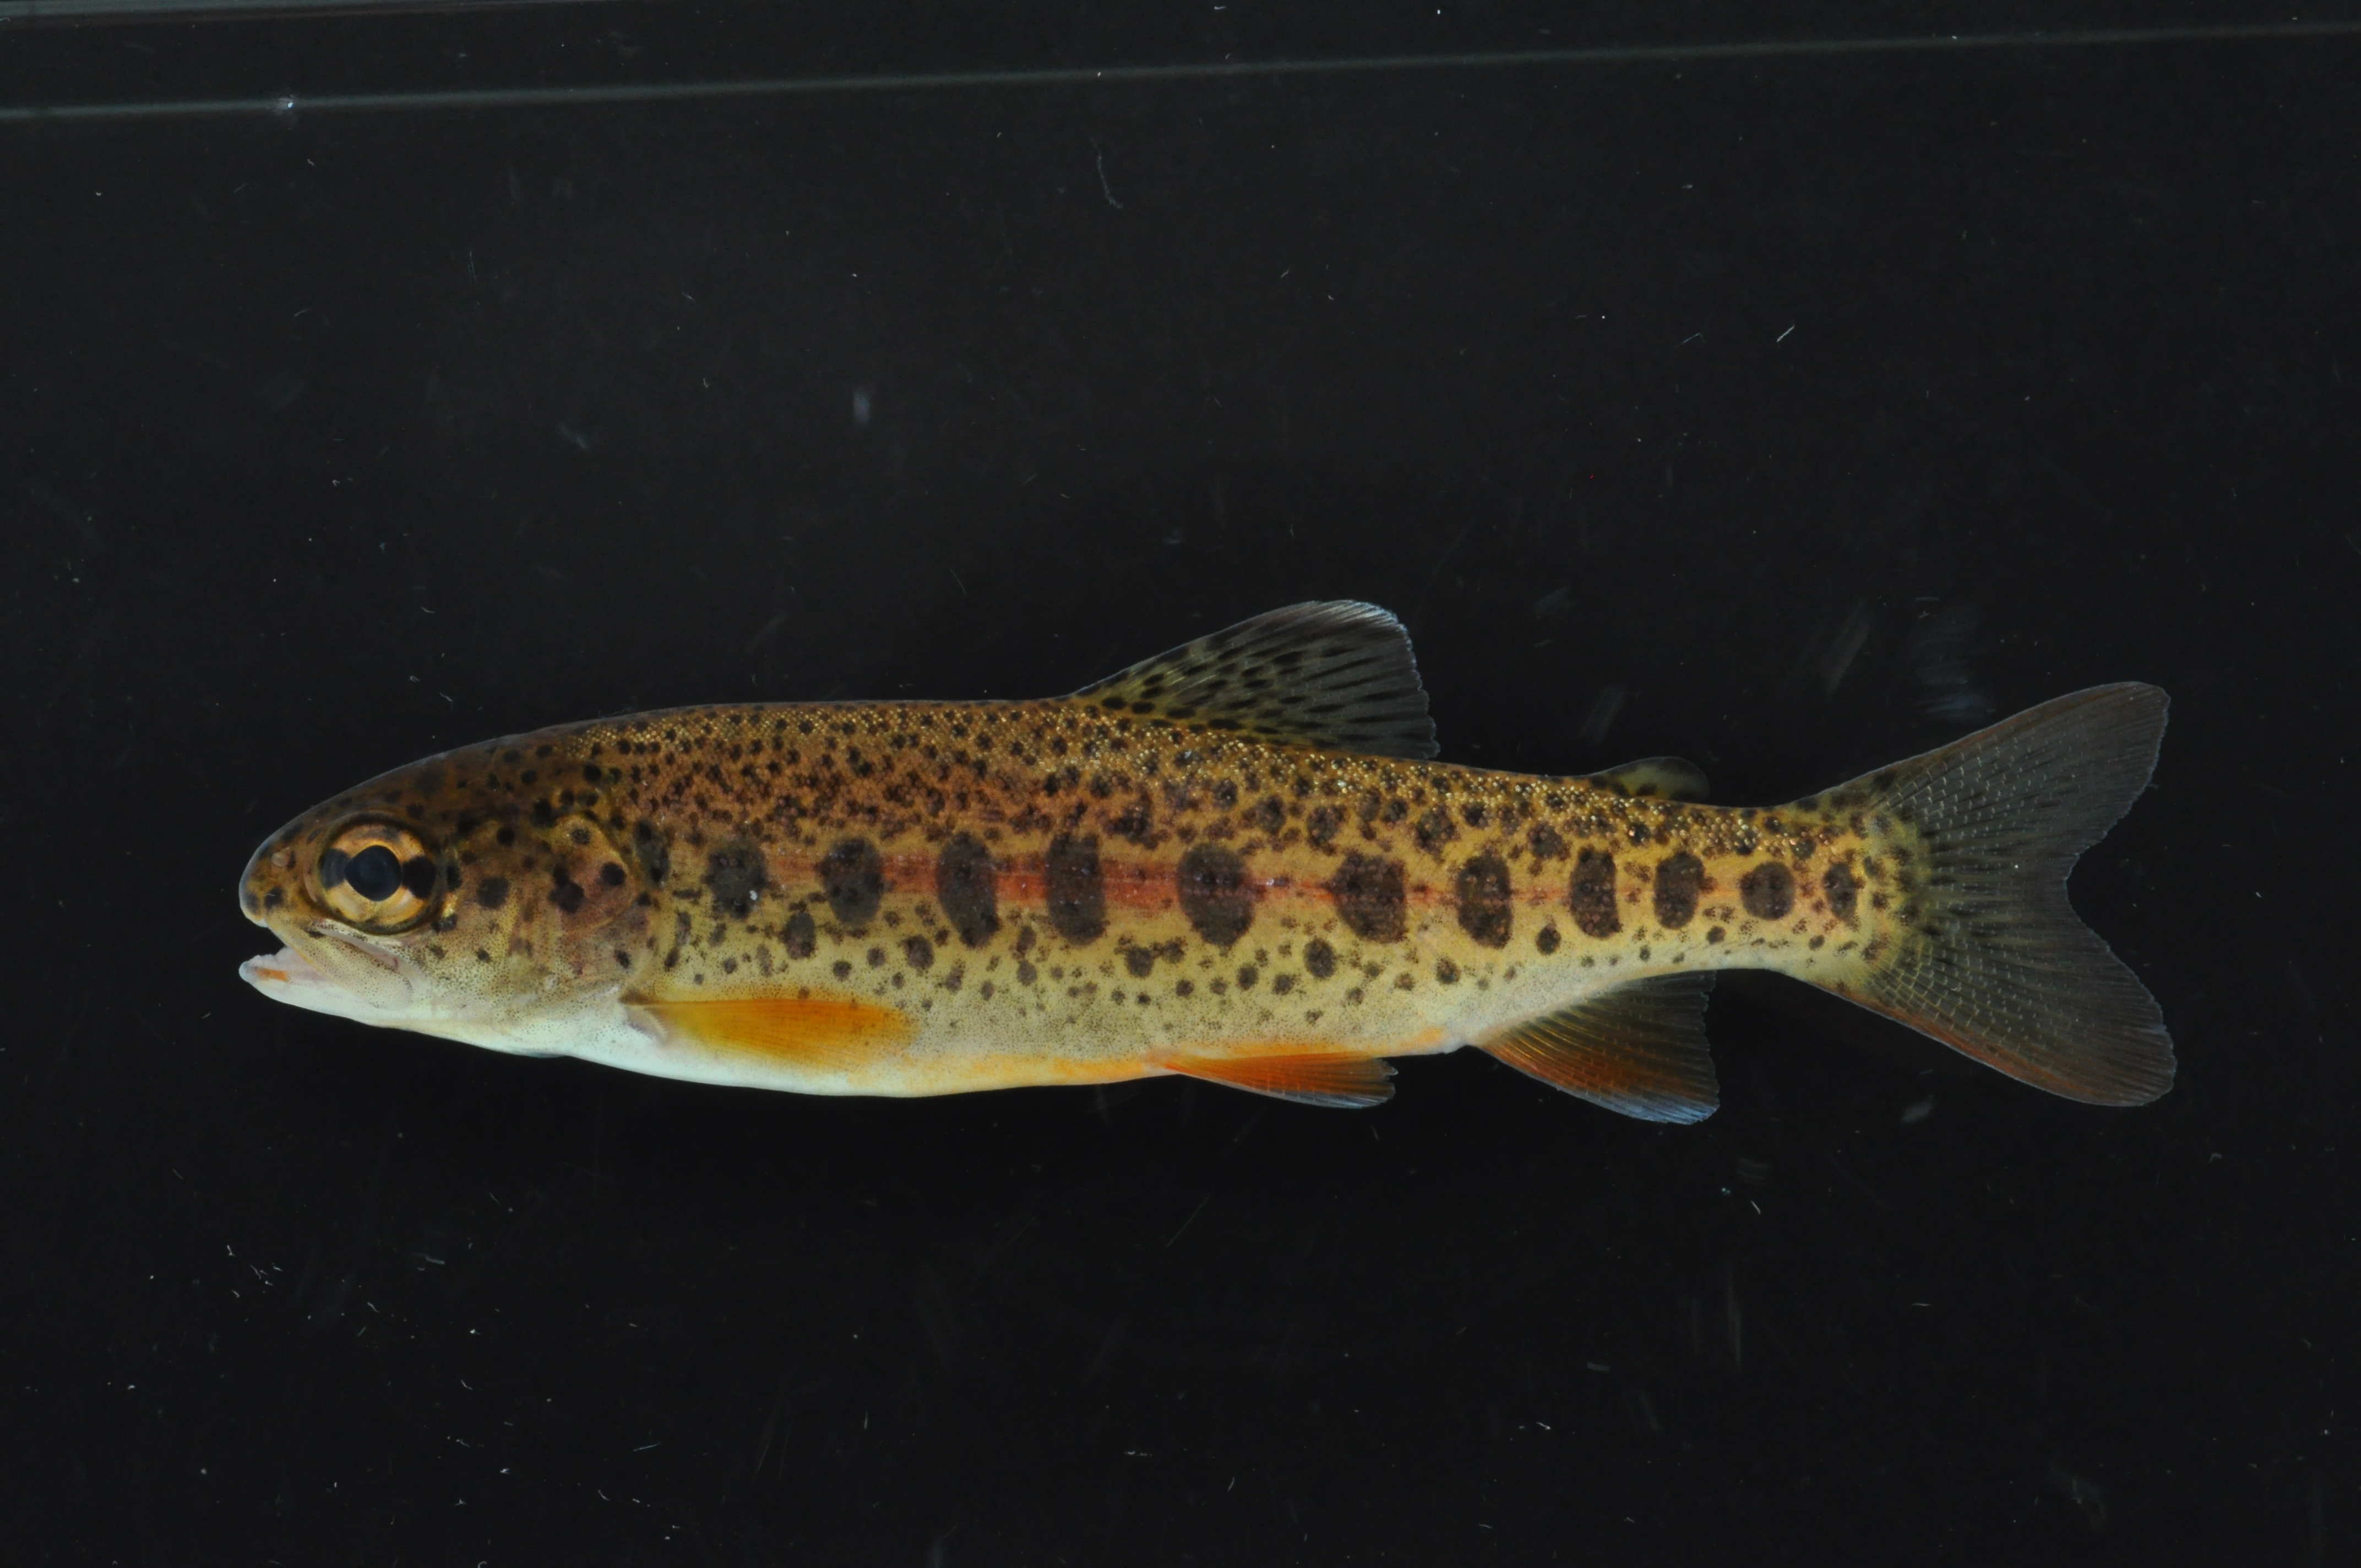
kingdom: Animalia
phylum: Chordata
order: Salmoniformes
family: Salmonidae
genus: Oncorhynchus
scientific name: Oncorhynchus mykiss
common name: Rainbow trout
